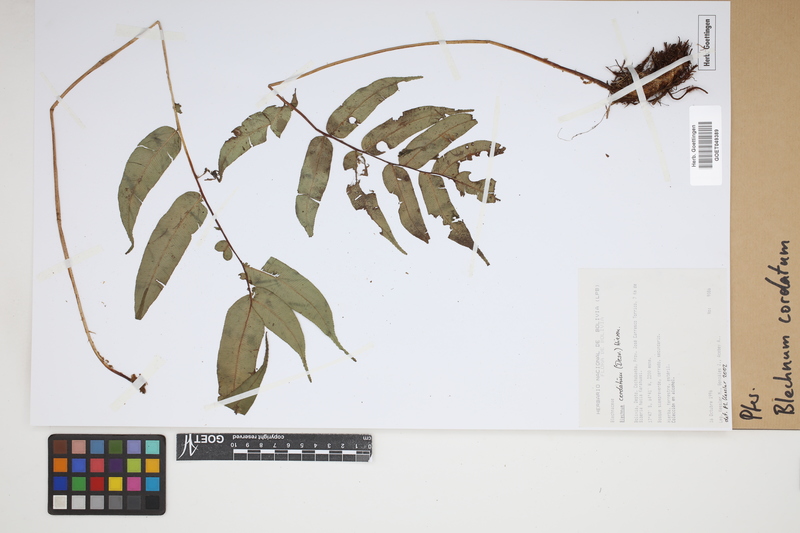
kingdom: Plantae
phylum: Tracheophyta
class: Polypodiopsida
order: Polypodiales
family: Blechnaceae
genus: Parablechnum
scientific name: Parablechnum cordatum
